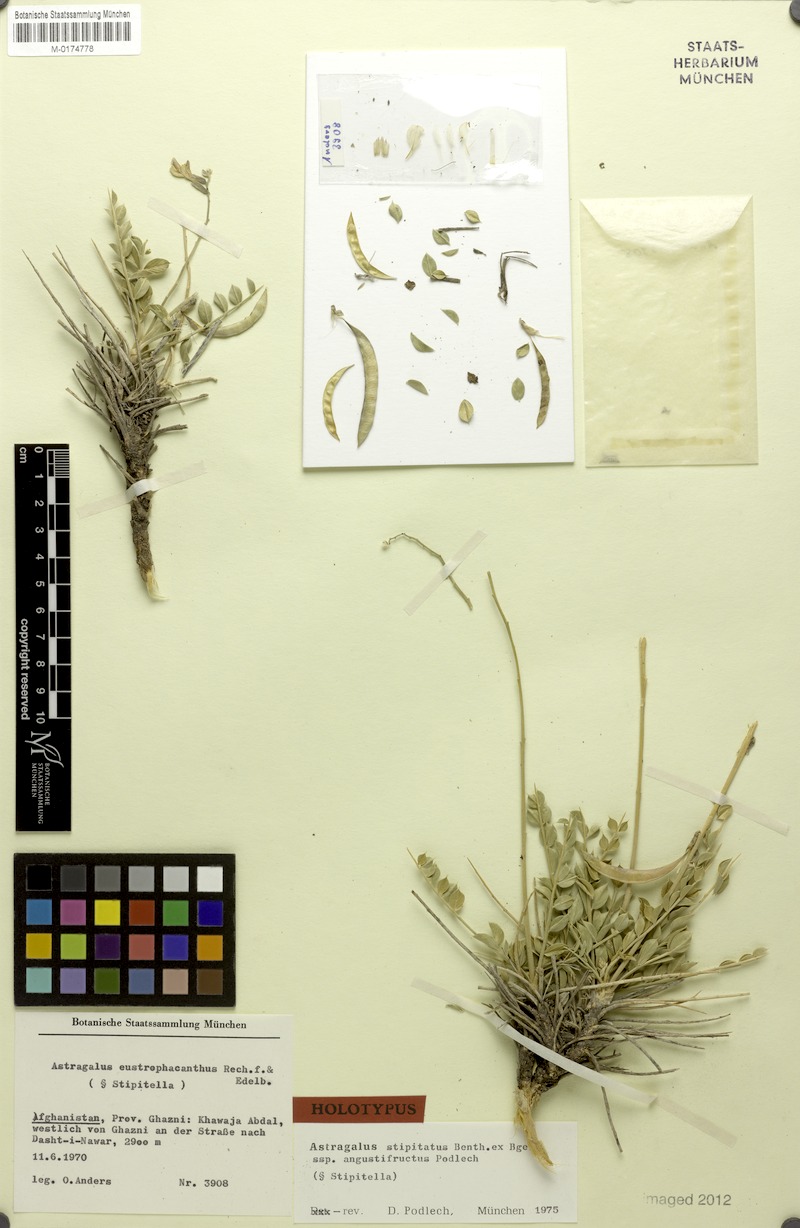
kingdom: Plantae
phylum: Tracheophyta
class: Magnoliopsida
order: Fabales
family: Fabaceae
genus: Astragalus
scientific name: Astragalus eustrophacanthus
